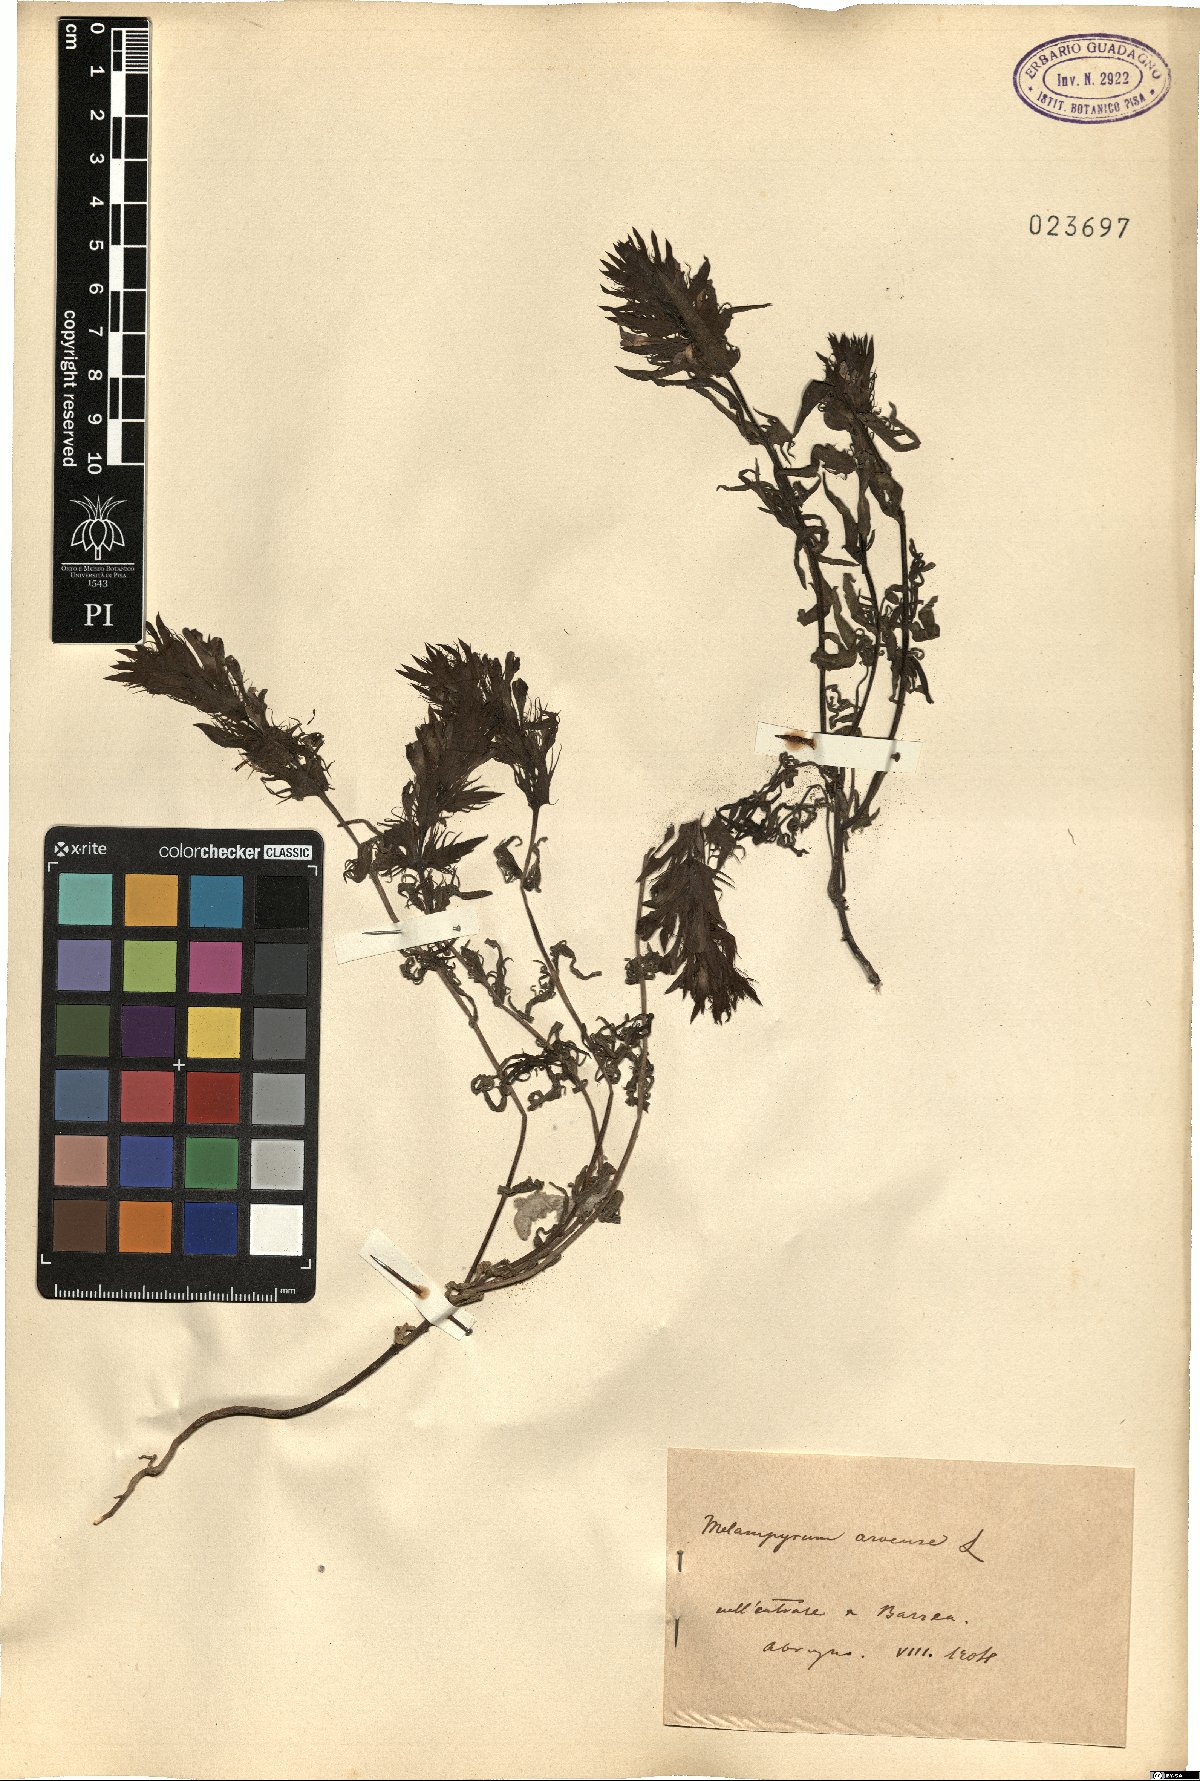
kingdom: Plantae
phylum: Tracheophyta
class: Magnoliopsida
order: Lamiales
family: Orobanchaceae
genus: Melampyrum
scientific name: Melampyrum arvense
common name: Field cow-wheat
